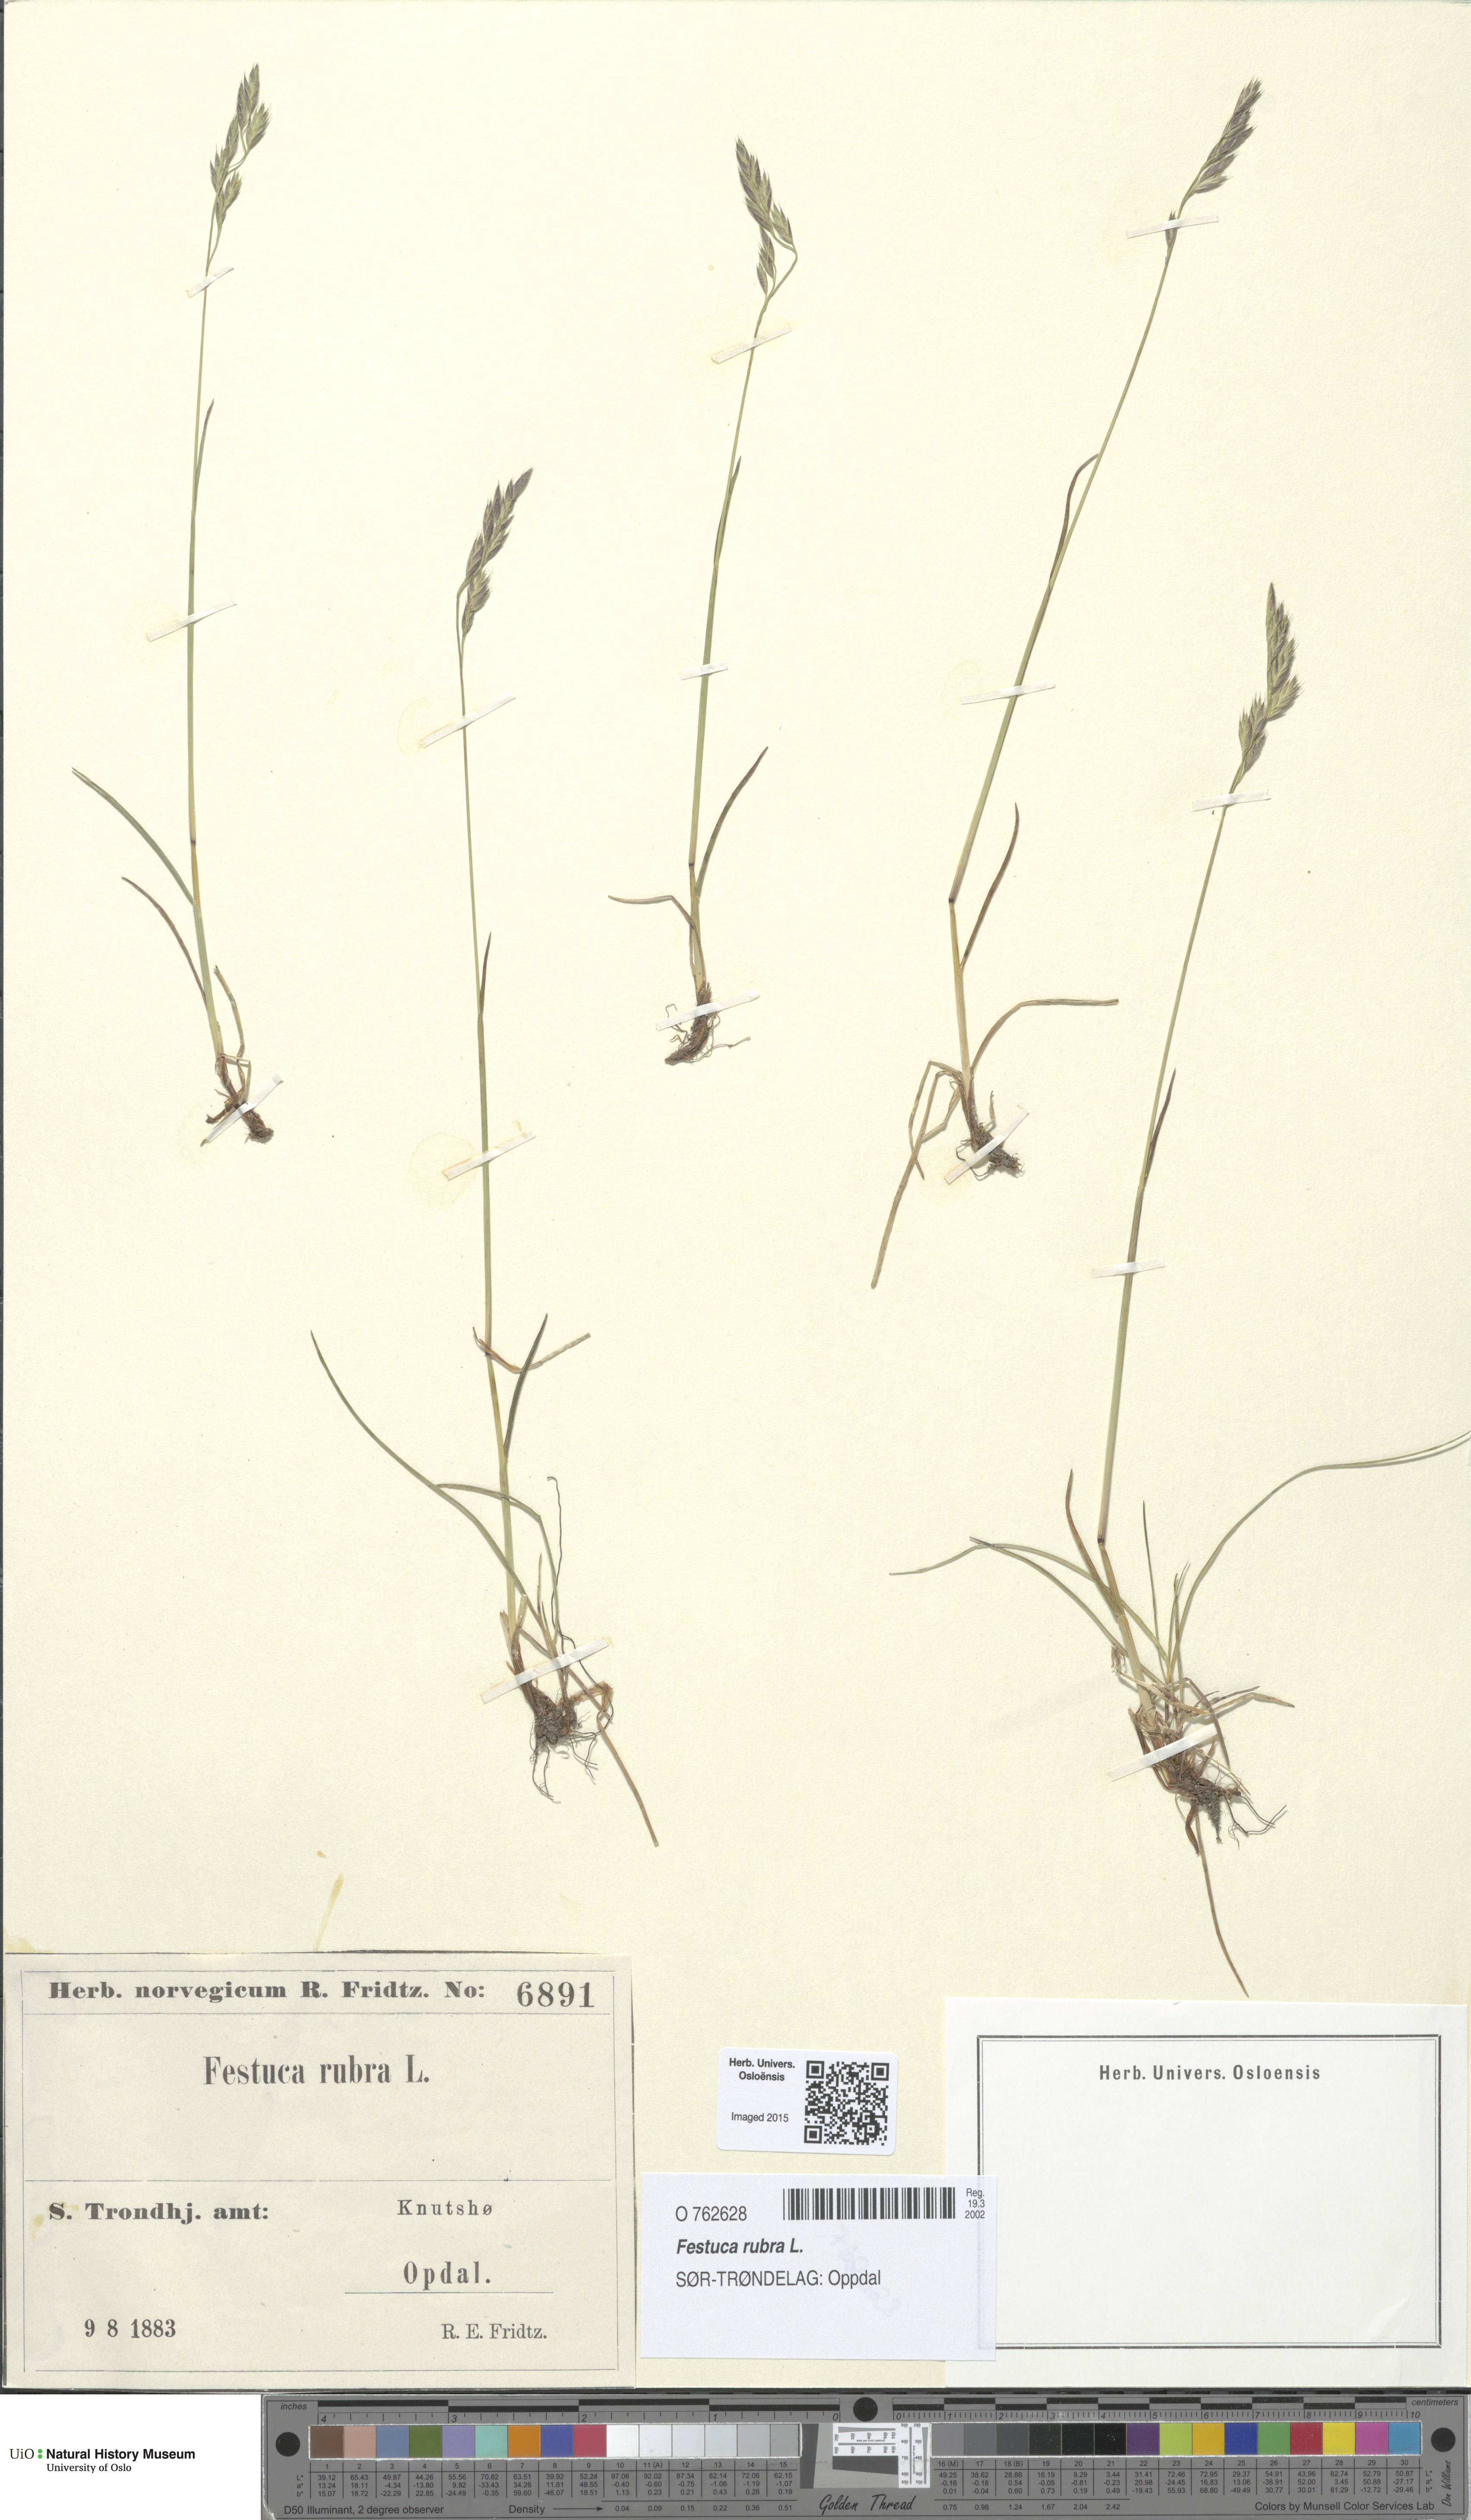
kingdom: Plantae
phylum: Tracheophyta
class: Liliopsida
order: Poales
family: Poaceae
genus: Festuca
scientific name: Festuca rubra
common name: Red fescue
